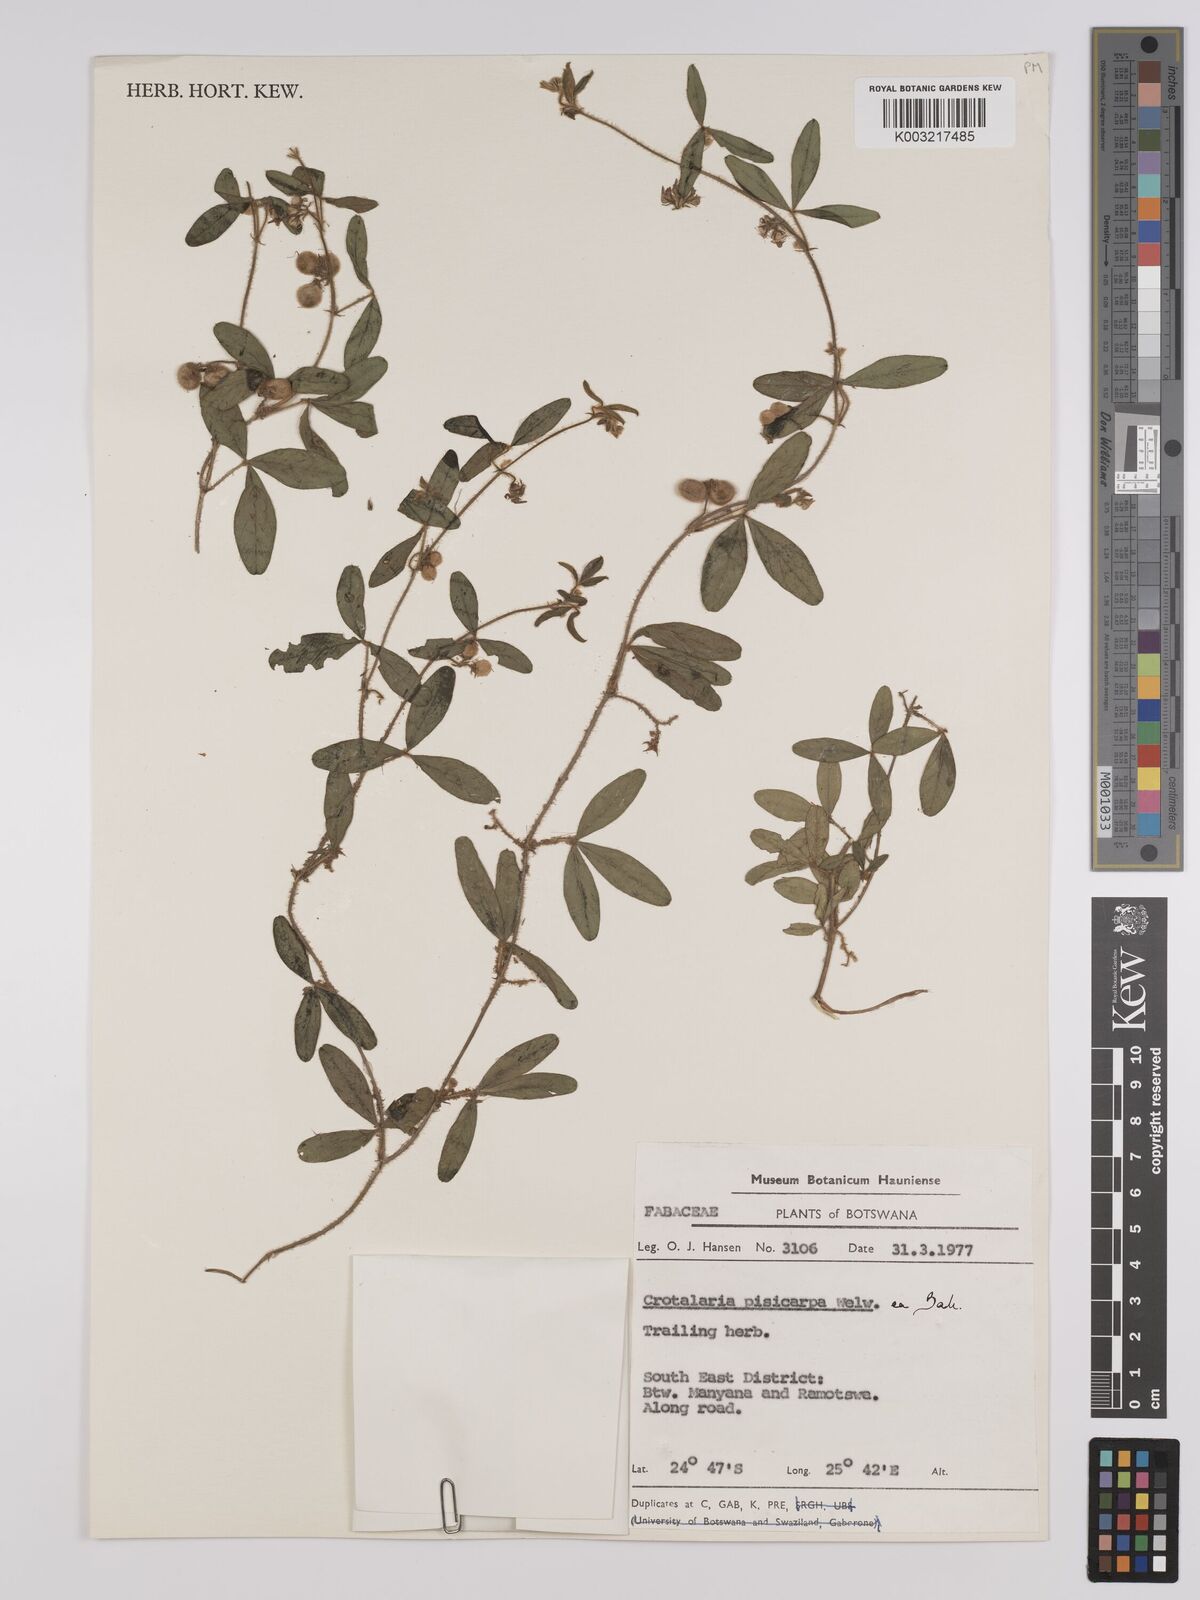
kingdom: Plantae
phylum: Tracheophyta
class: Magnoliopsida
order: Fabales
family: Fabaceae
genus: Crotalaria
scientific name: Crotalaria pisicarpa
